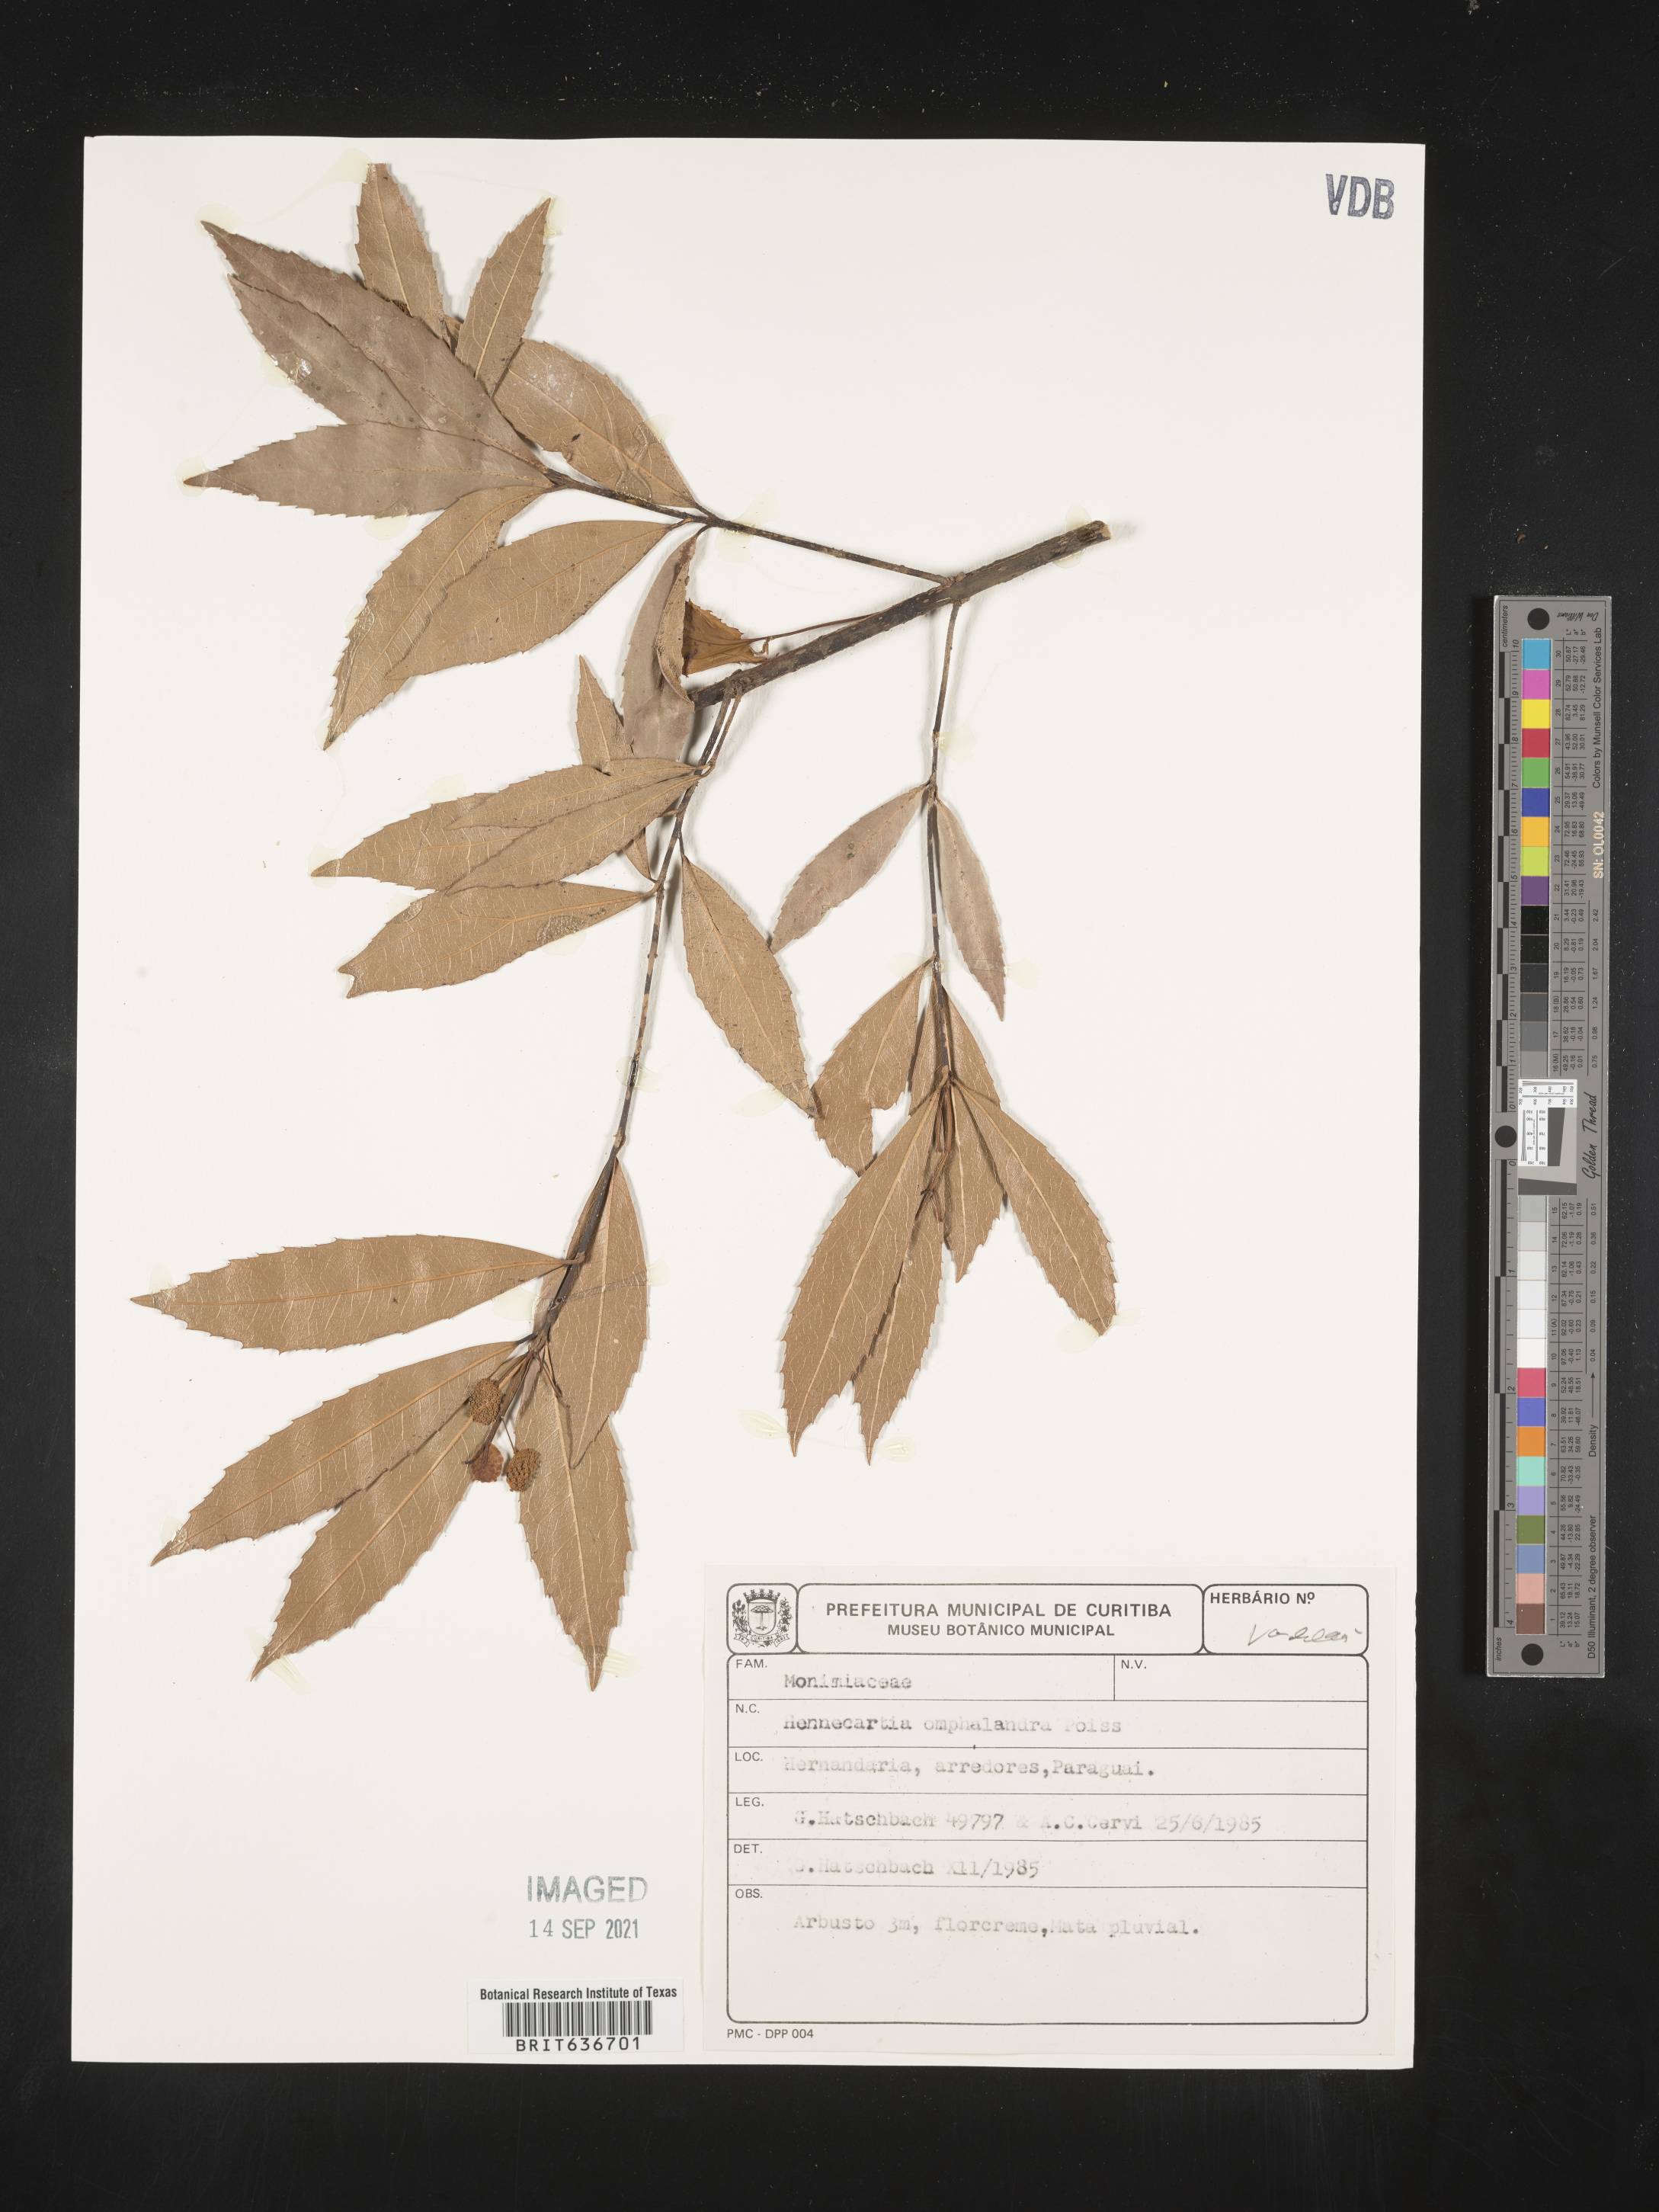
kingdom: Plantae
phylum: Tracheophyta
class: Magnoliopsida
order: Laurales
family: Monimiaceae
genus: Hennecartia
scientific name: Hennecartia
